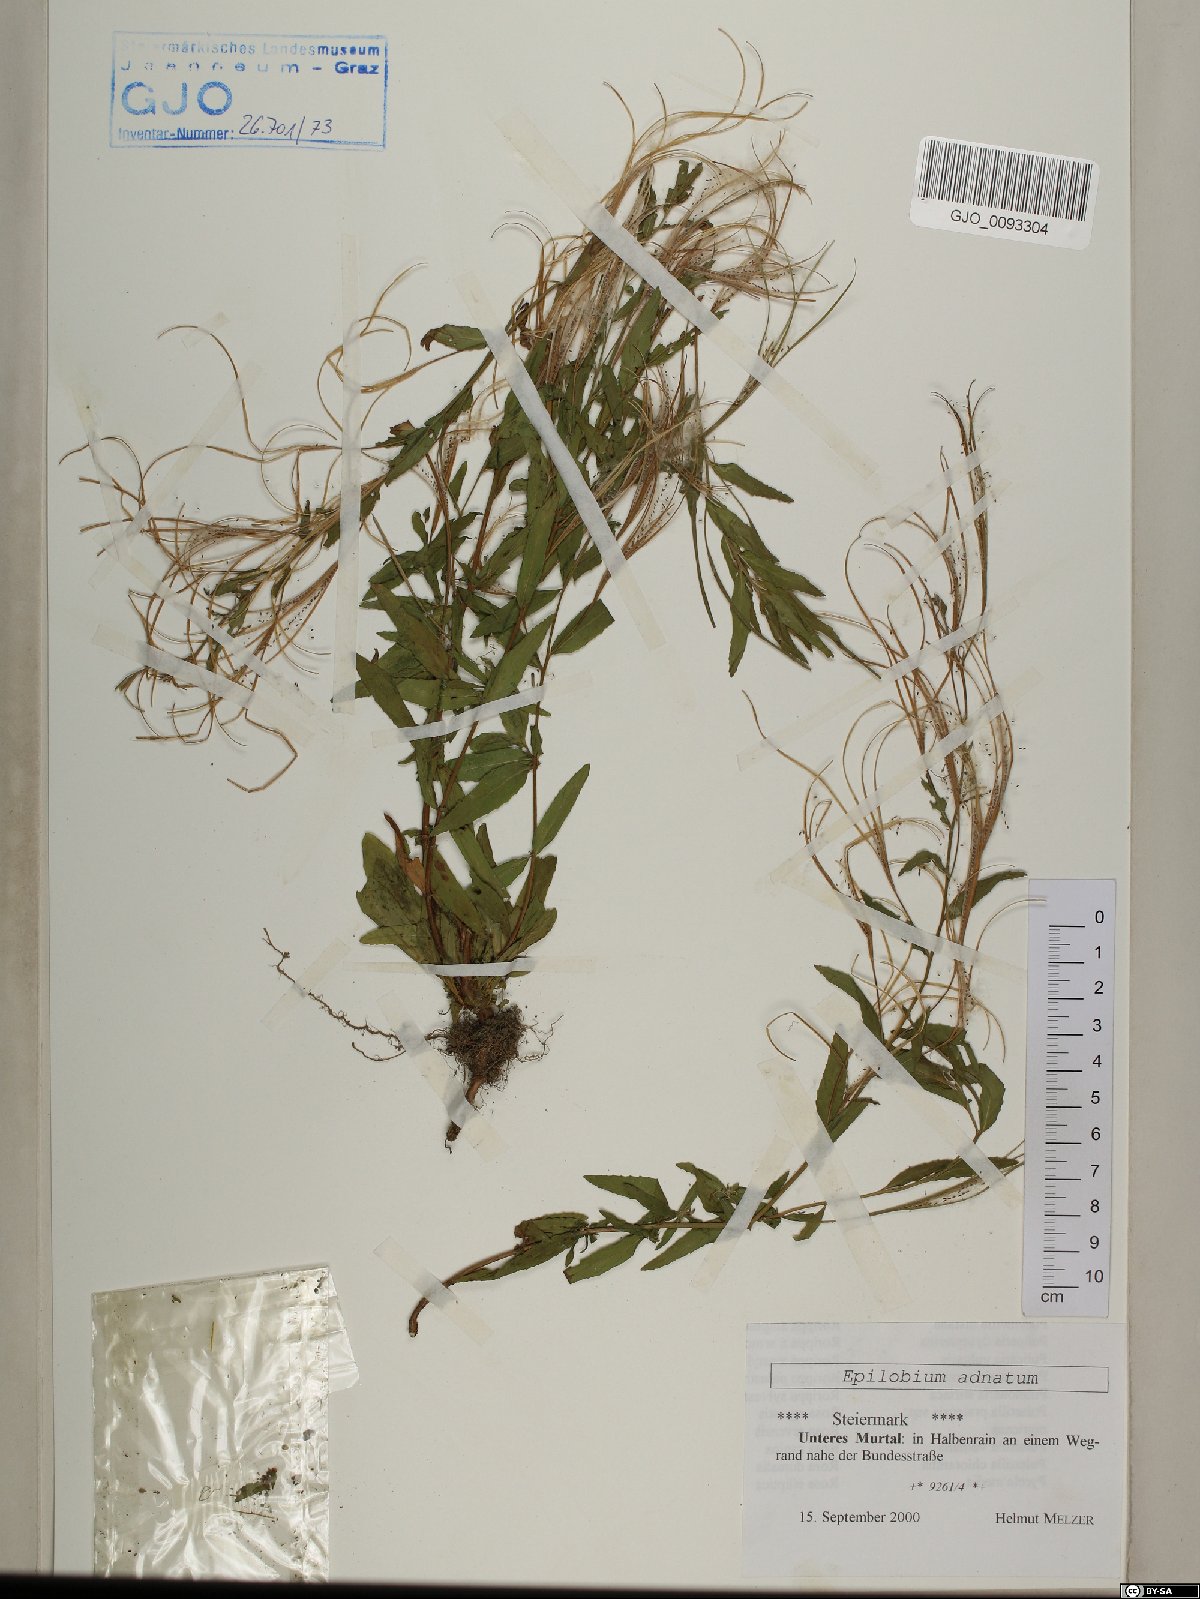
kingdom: Plantae
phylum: Tracheophyta
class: Magnoliopsida
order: Myrtales
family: Onagraceae
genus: Epilobium
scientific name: Epilobium tetragonum
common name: Square-stemmed willowherb
